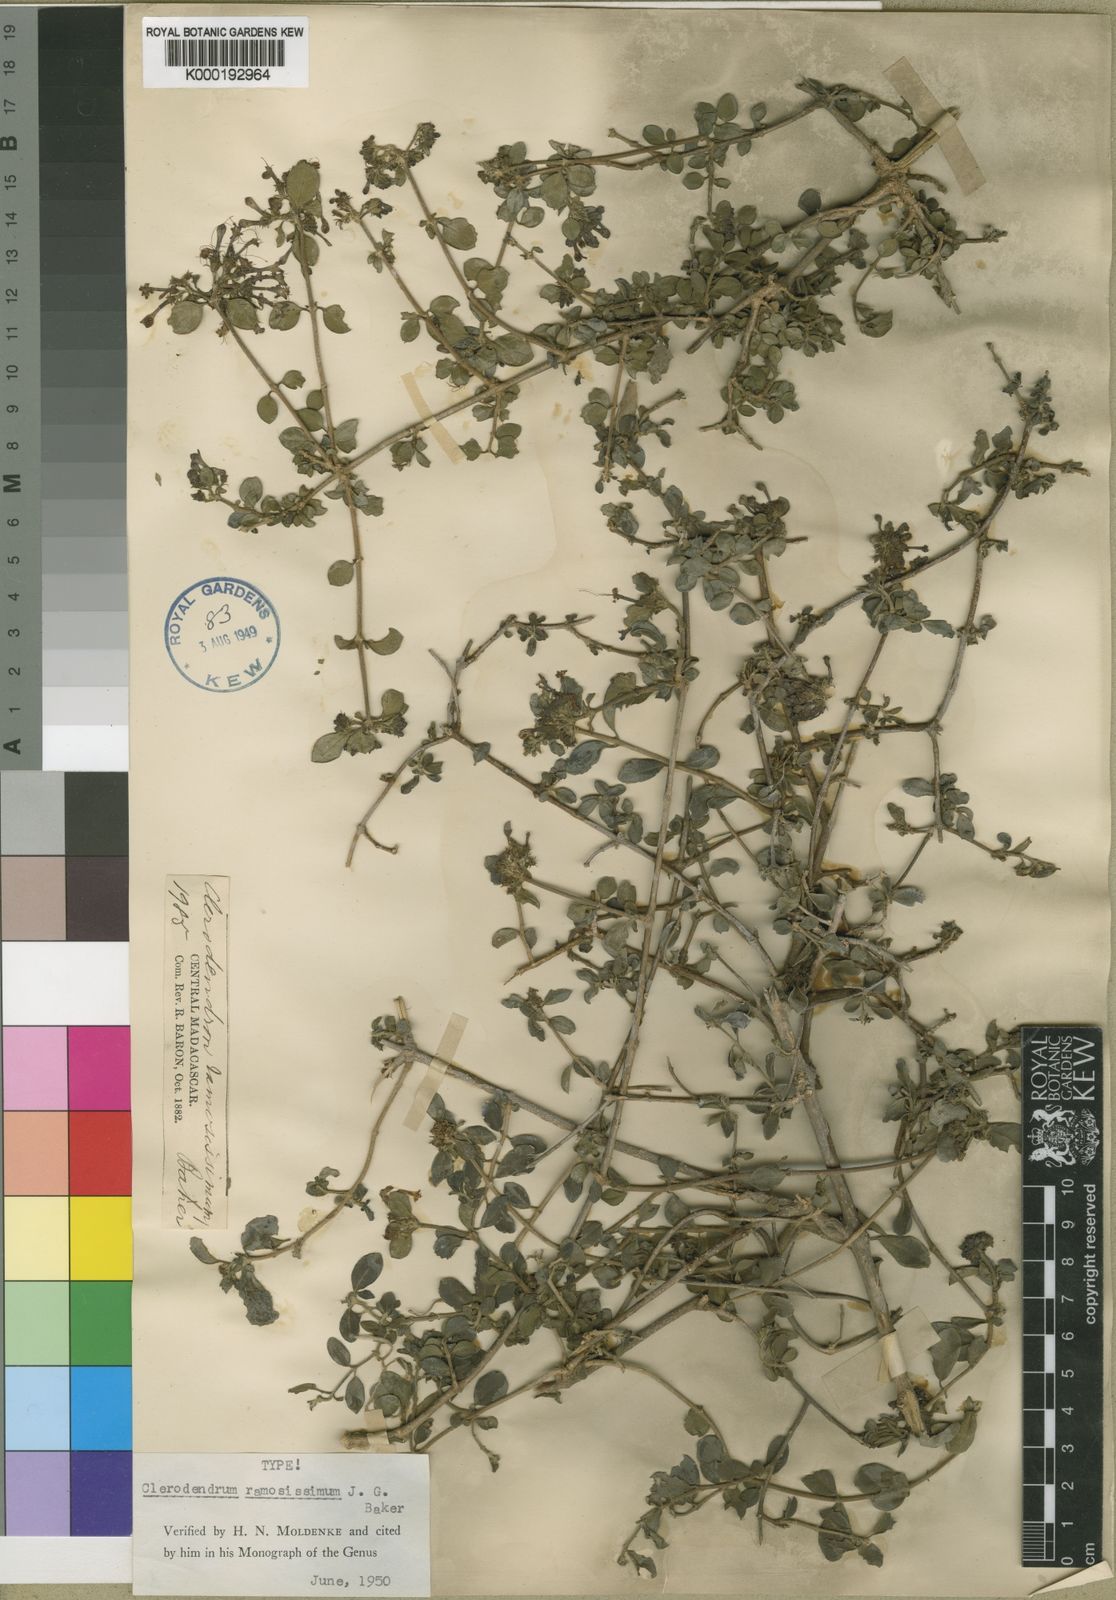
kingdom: Plantae
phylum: Tracheophyta
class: Magnoliopsida
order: Lamiales
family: Lamiaceae
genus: Clerodendrum
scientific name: Clerodendrum ramosissimum
